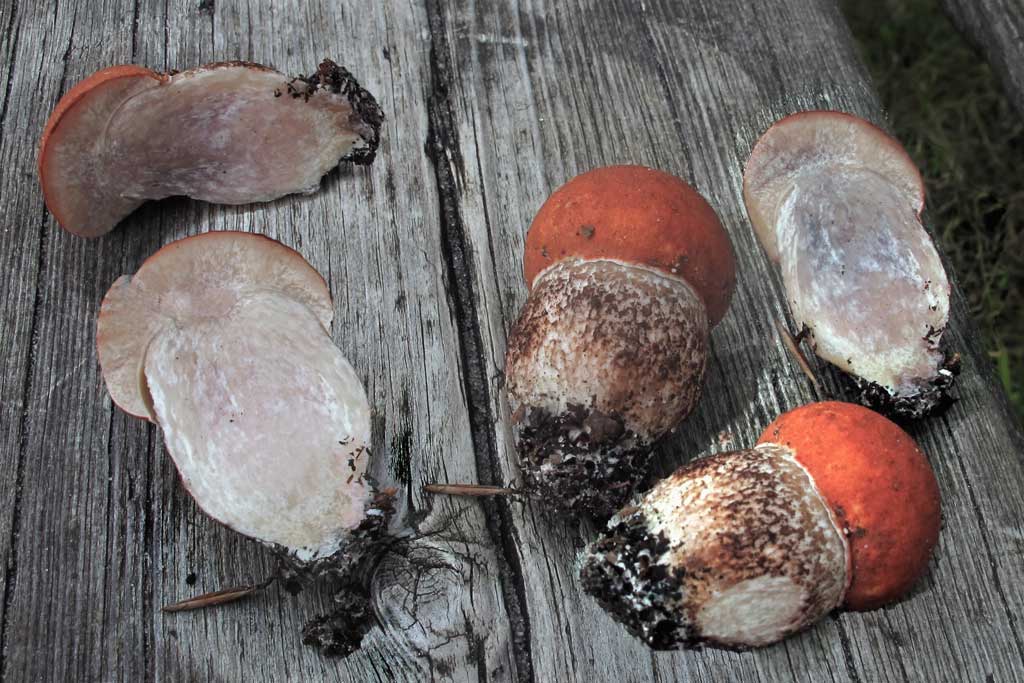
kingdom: Fungi
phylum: Basidiomycota
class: Agaricomycetes
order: Boletales
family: Boletaceae
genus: Leccinum
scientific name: Leccinum aurantiacum
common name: rustrød skælrørhat
